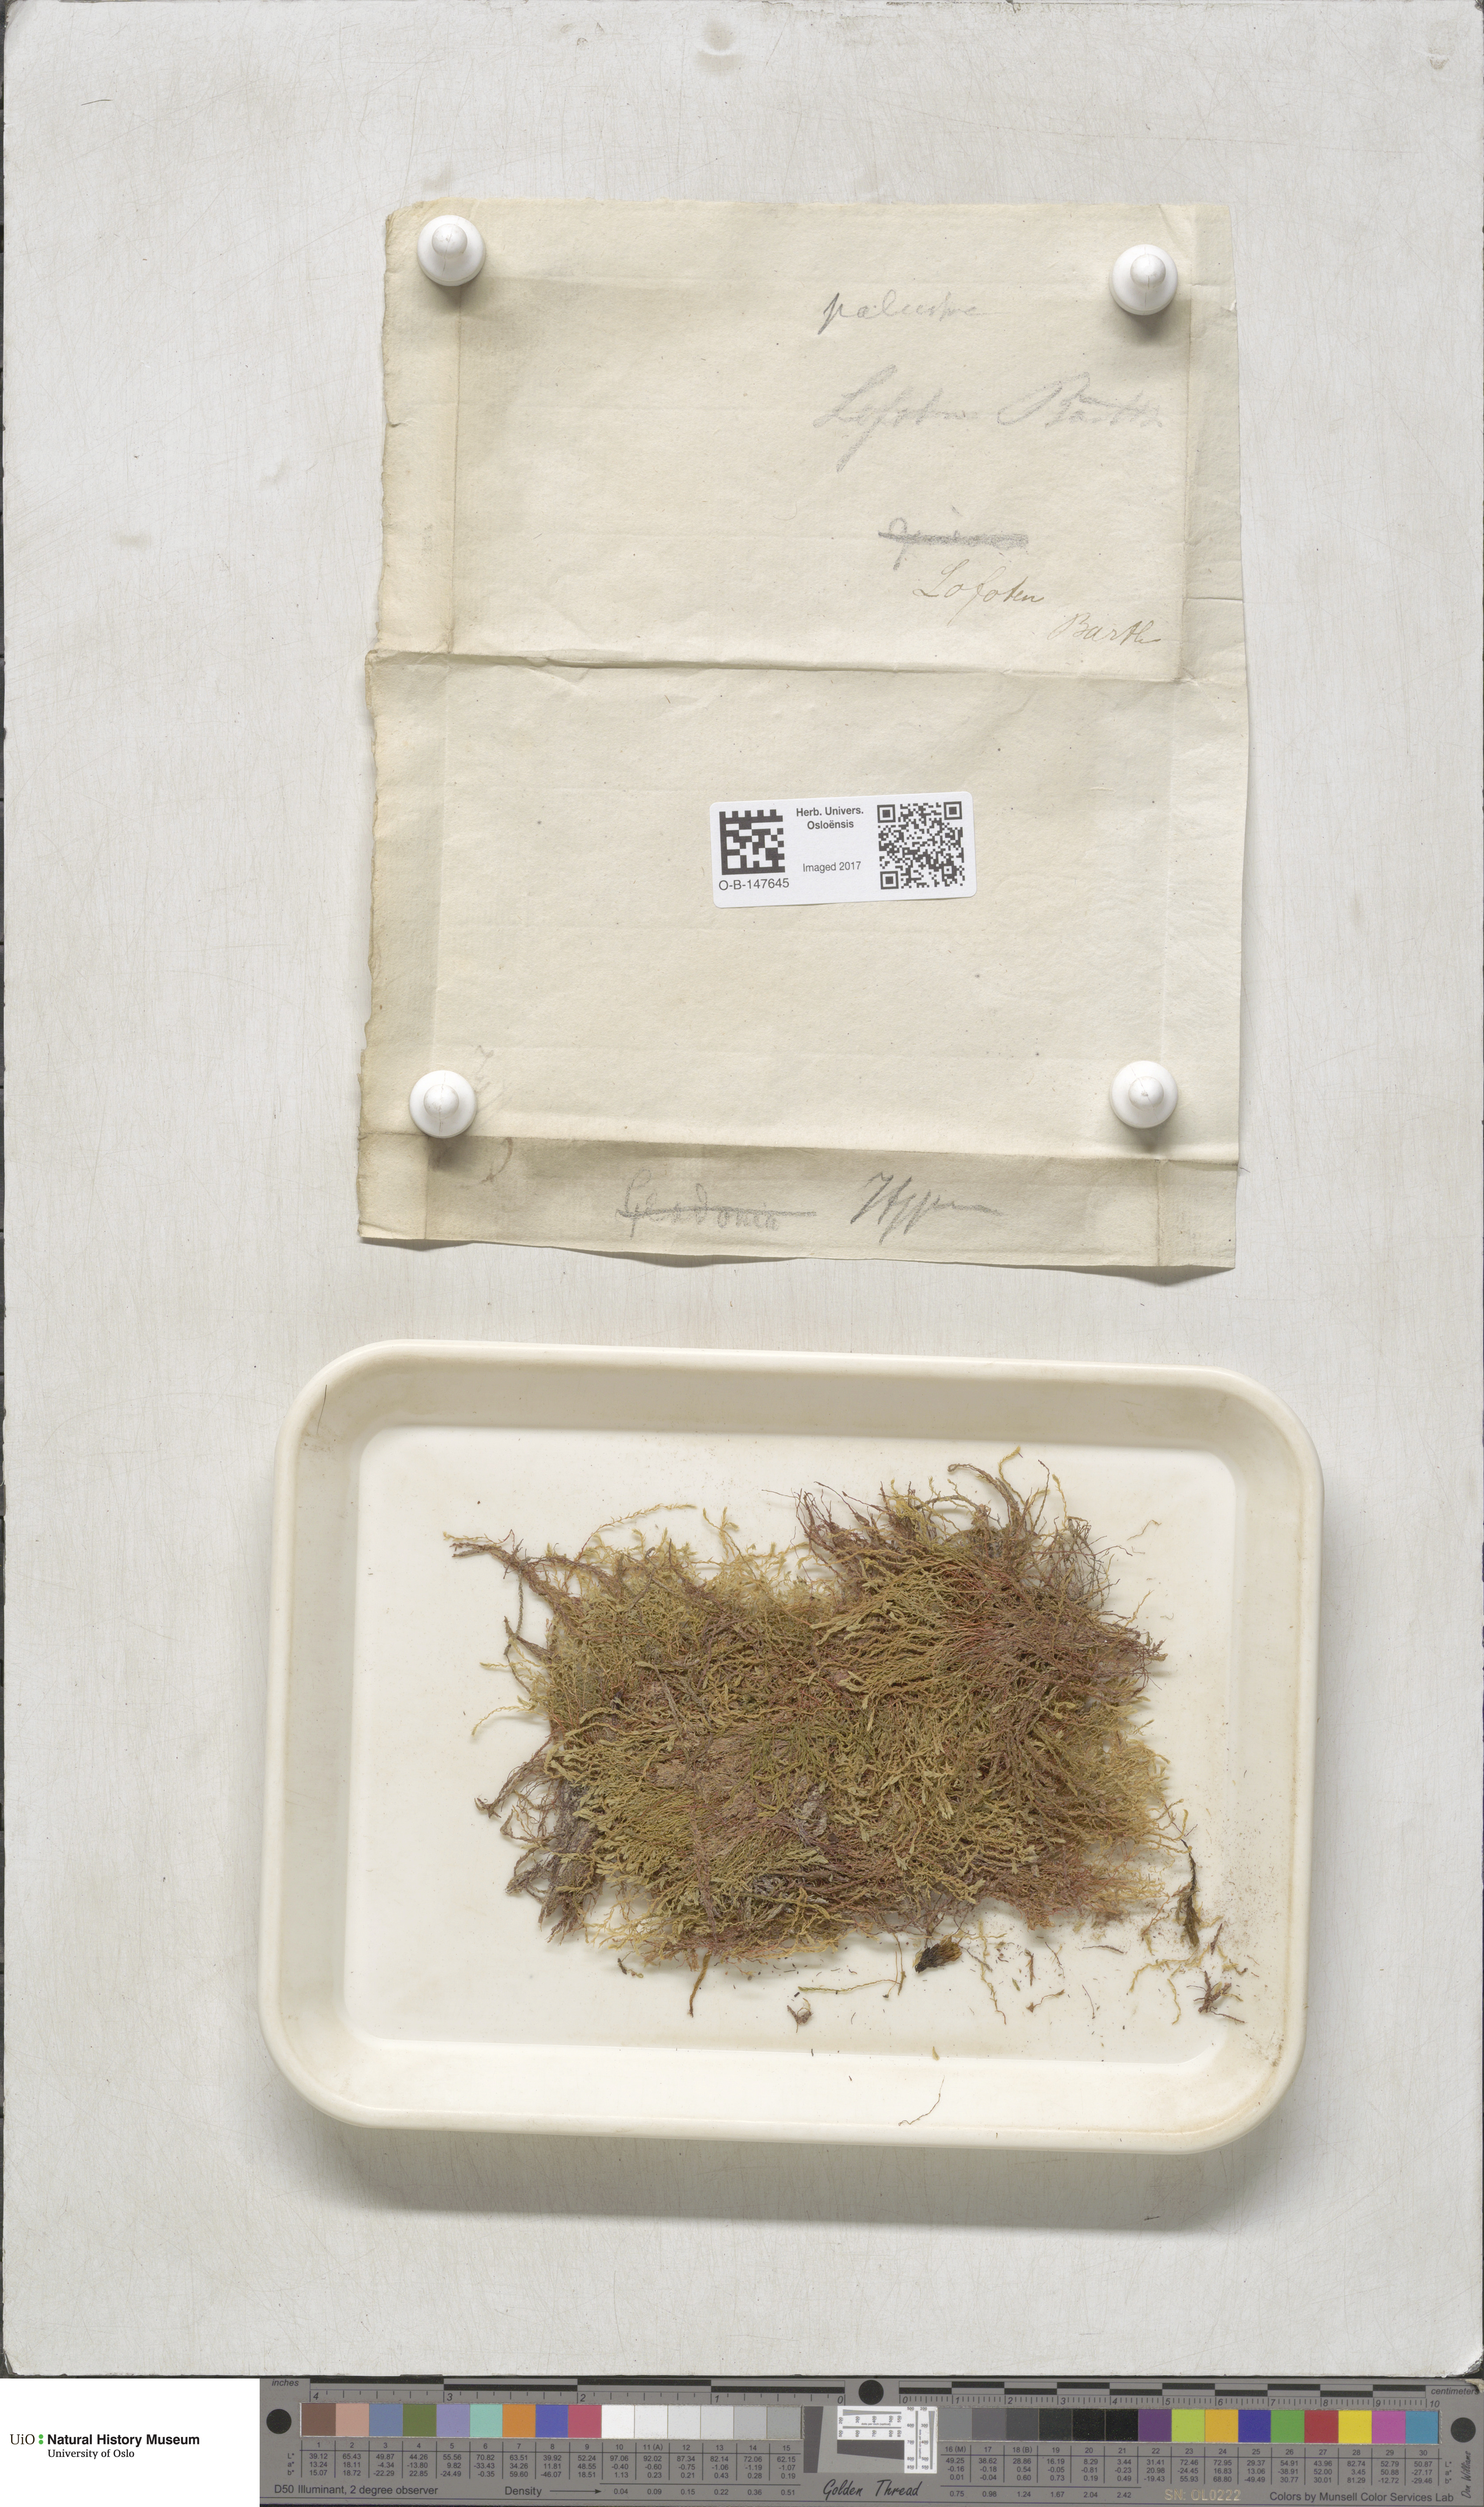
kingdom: Plantae
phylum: Bryophyta
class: Bryopsida
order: Bryales
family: Mniaceae
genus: Pohlia
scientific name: Pohlia
